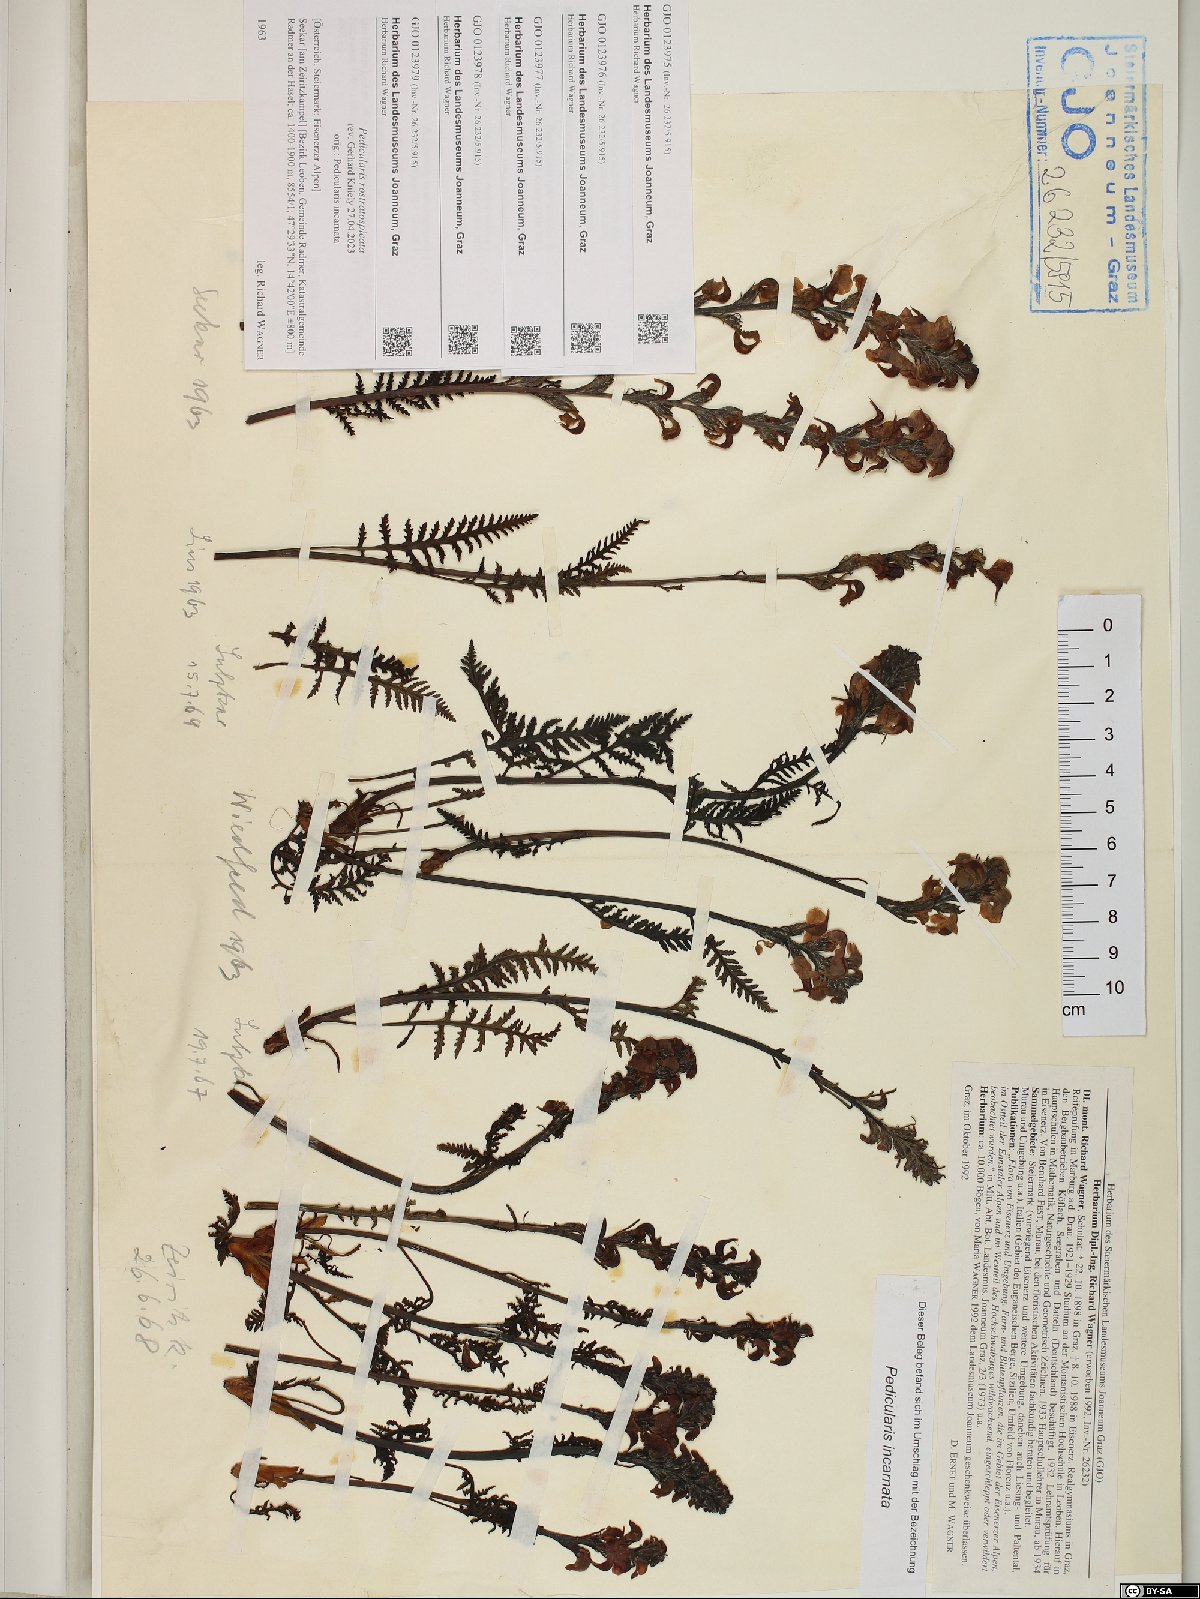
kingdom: Plantae
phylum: Tracheophyta
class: Magnoliopsida
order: Lamiales
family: Orobanchaceae
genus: Pedicularis
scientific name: Pedicularis rostratospicata
